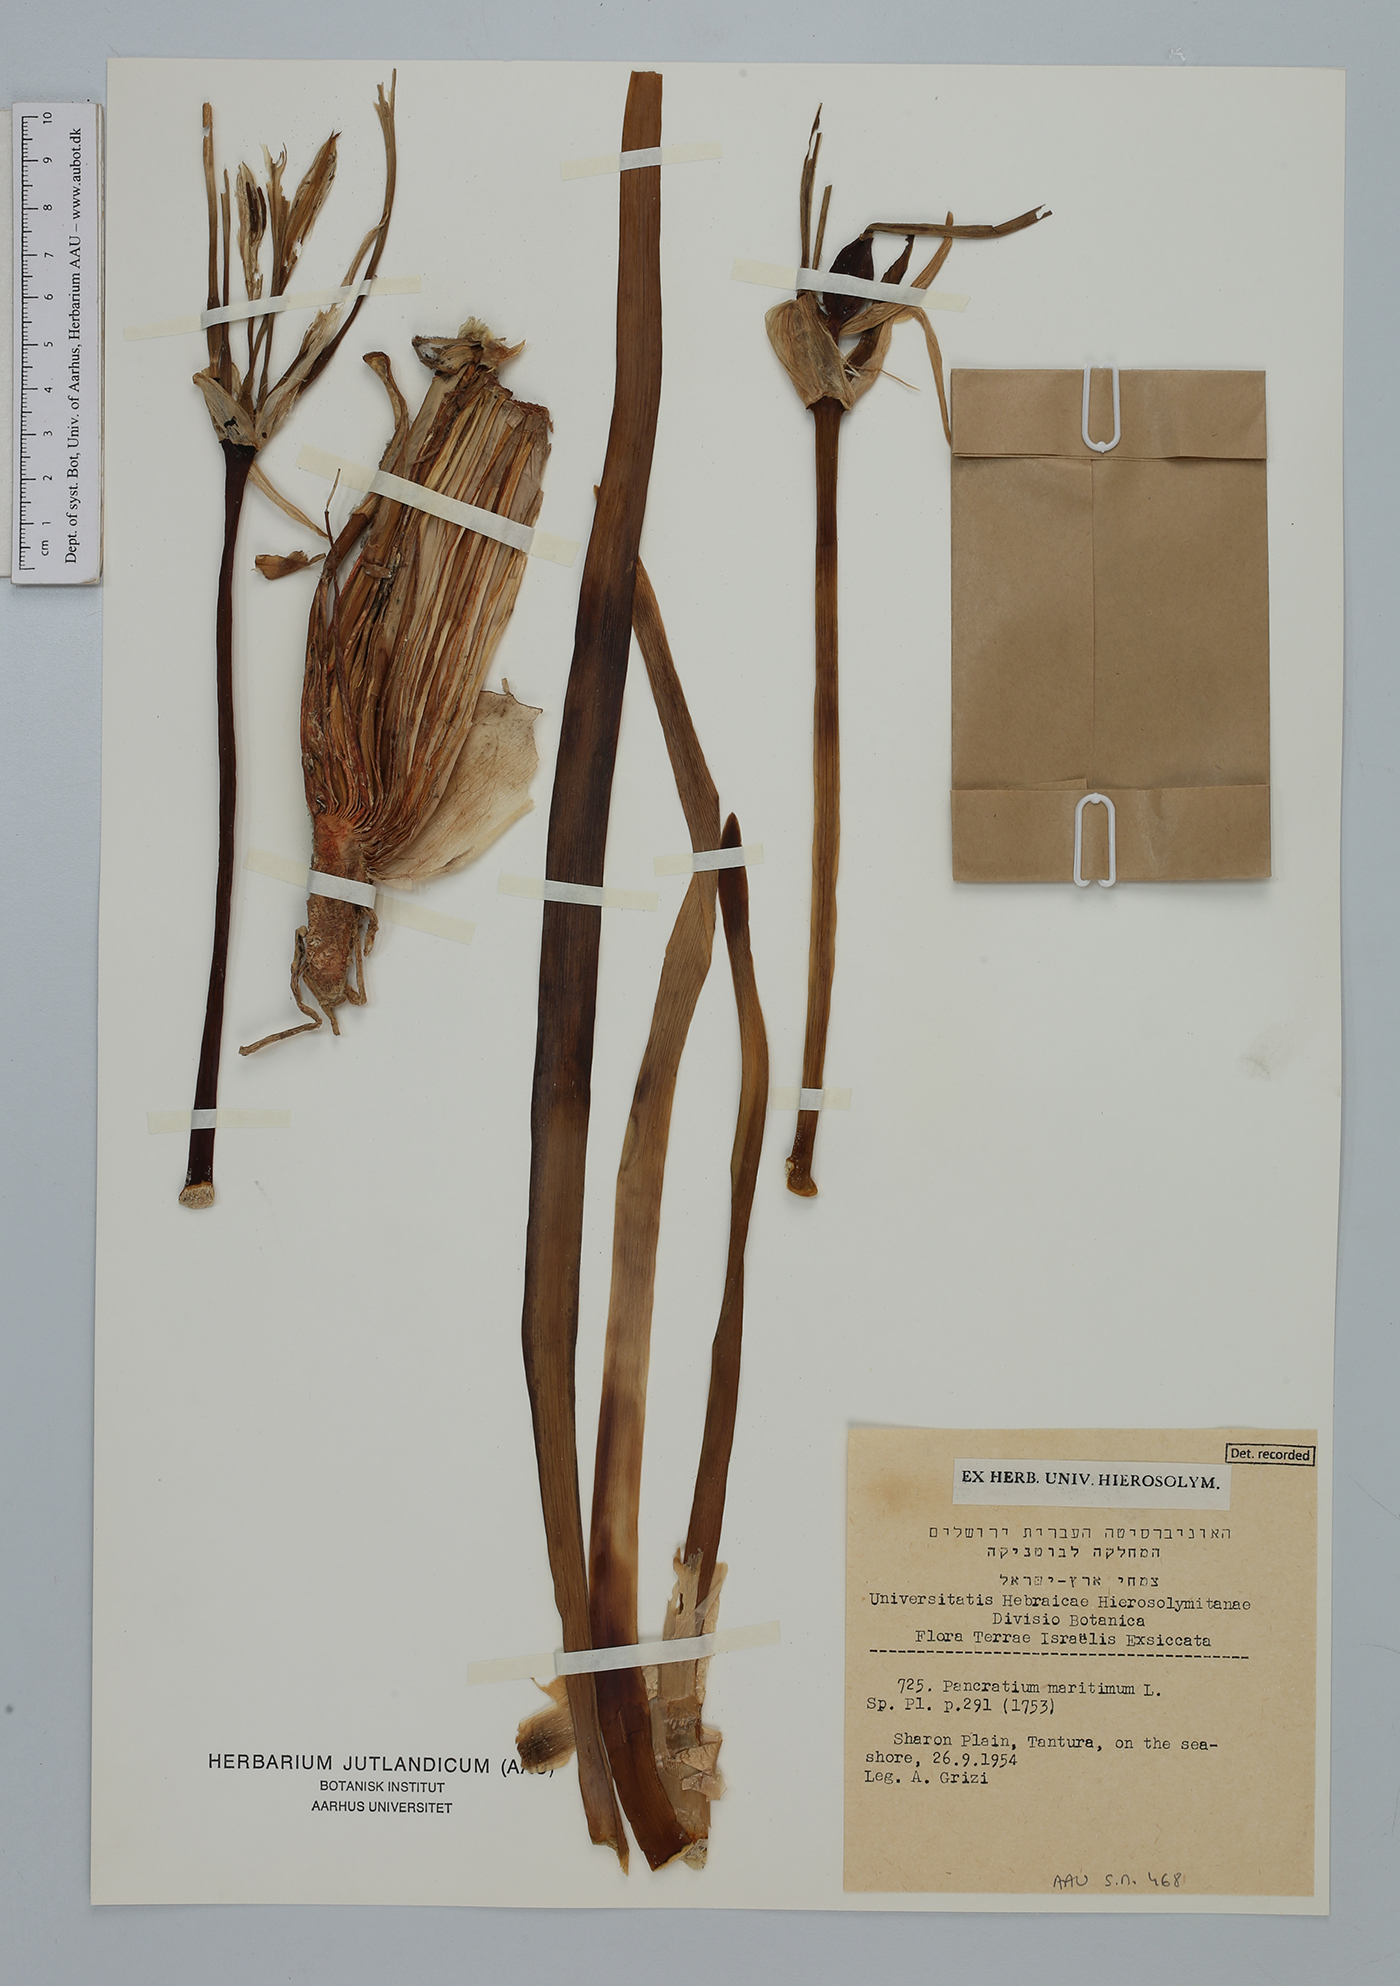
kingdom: Plantae
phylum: Tracheophyta
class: Liliopsida
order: Asparagales
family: Amaryllidaceae
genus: Pancratium
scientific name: Pancratium maritimum
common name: Sea-daffodil
